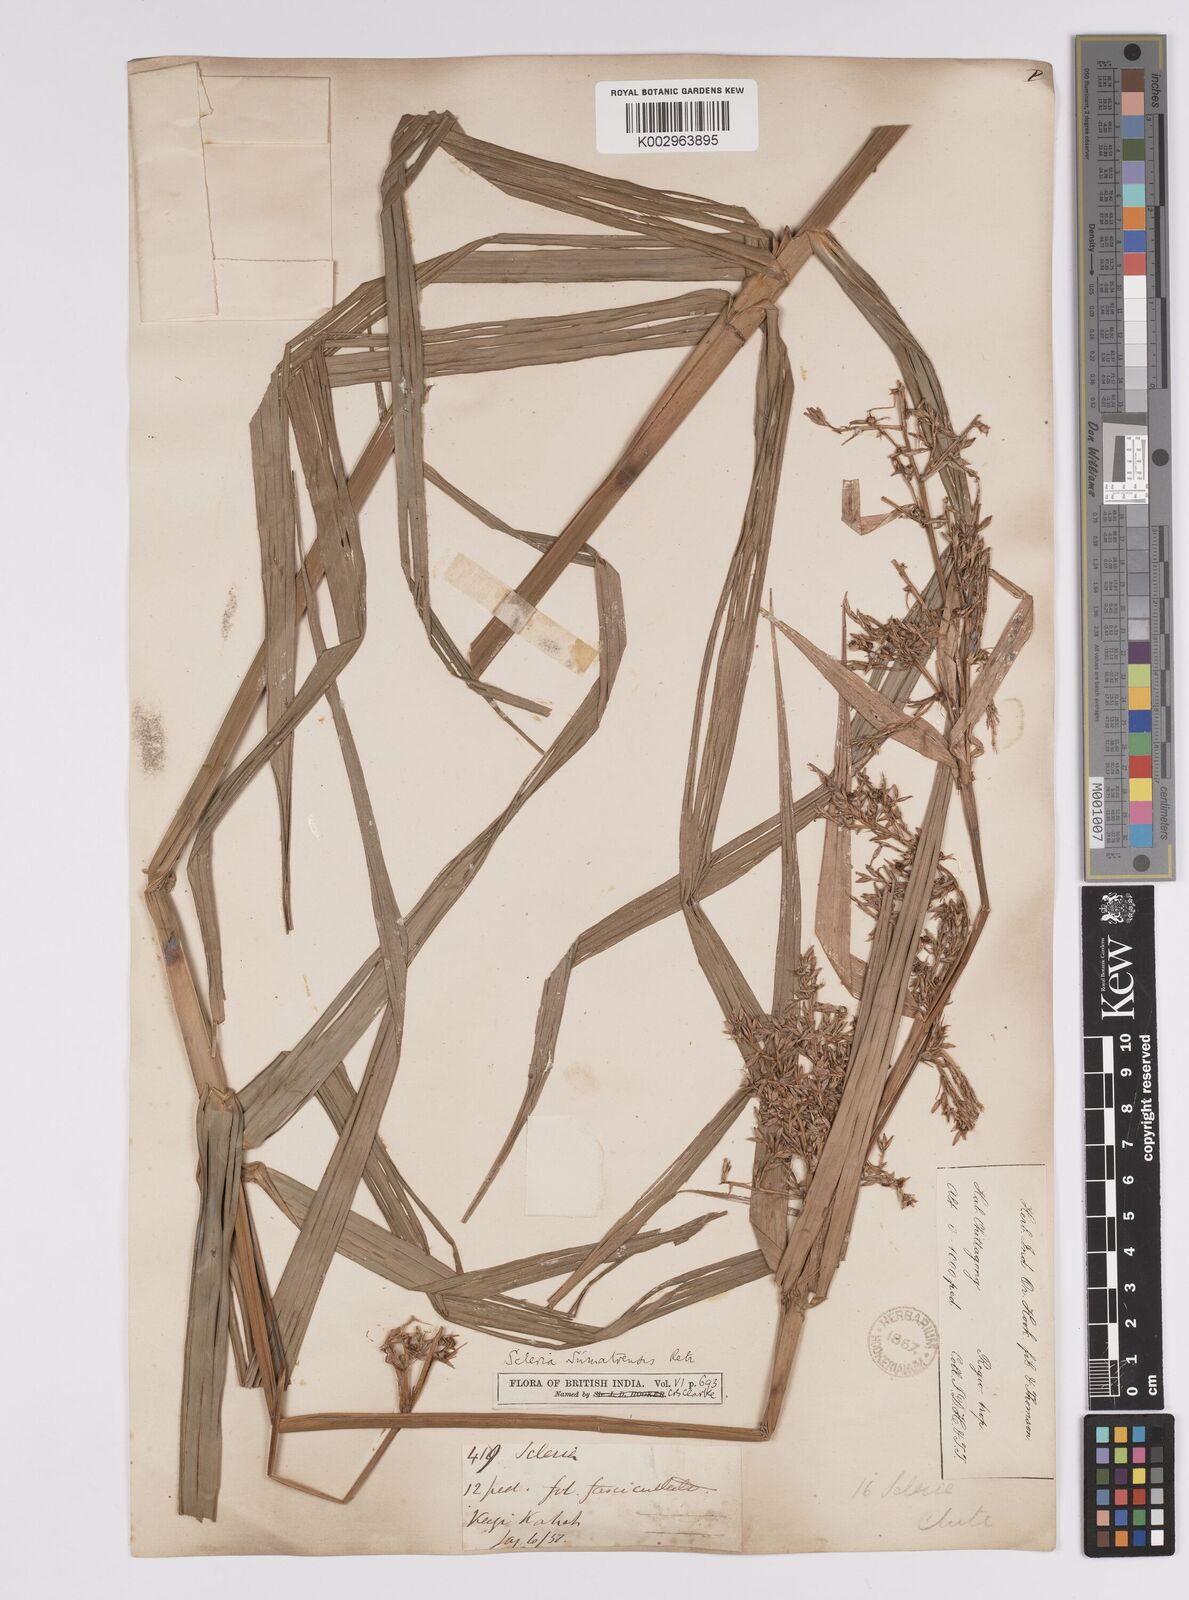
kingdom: Plantae
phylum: Tracheophyta
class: Liliopsida
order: Poales
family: Cyperaceae
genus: Scleria
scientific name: Scleria sumatrensis
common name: Sumatran scleria
